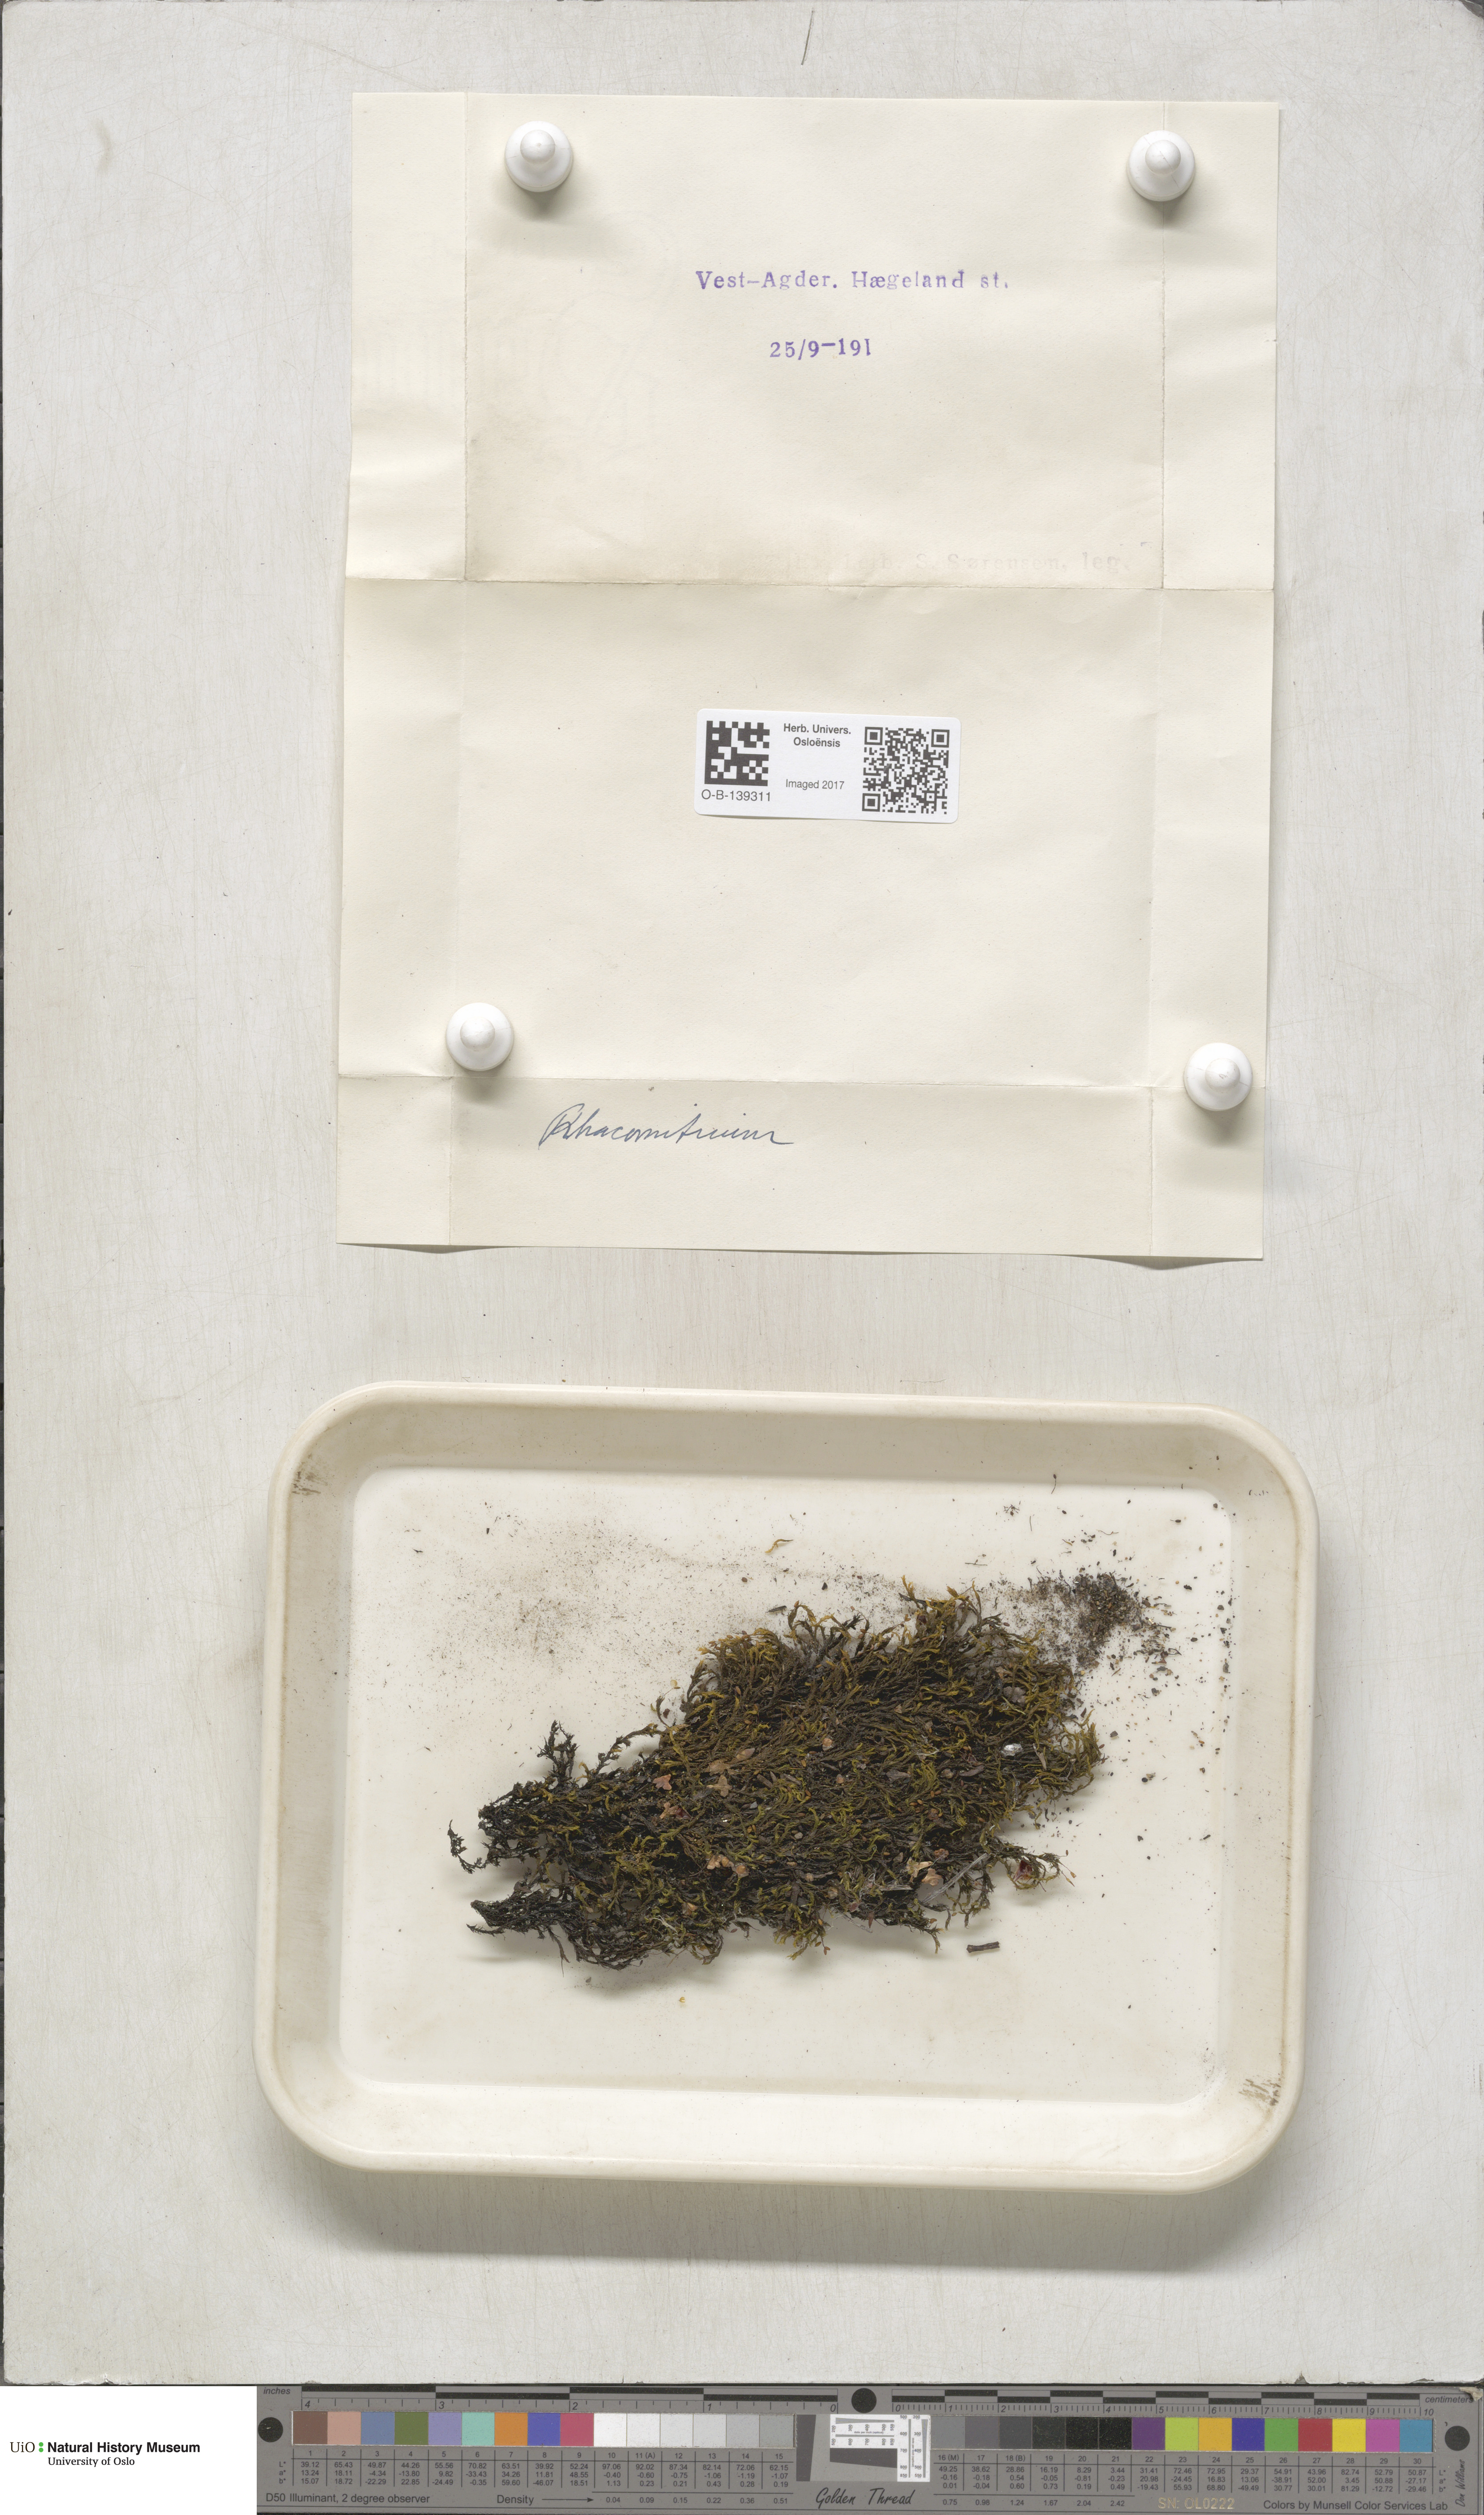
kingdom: Plantae
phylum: Bryophyta
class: Bryopsida
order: Grimmiales
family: Grimmiaceae
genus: Racomitrium
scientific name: Racomitrium
